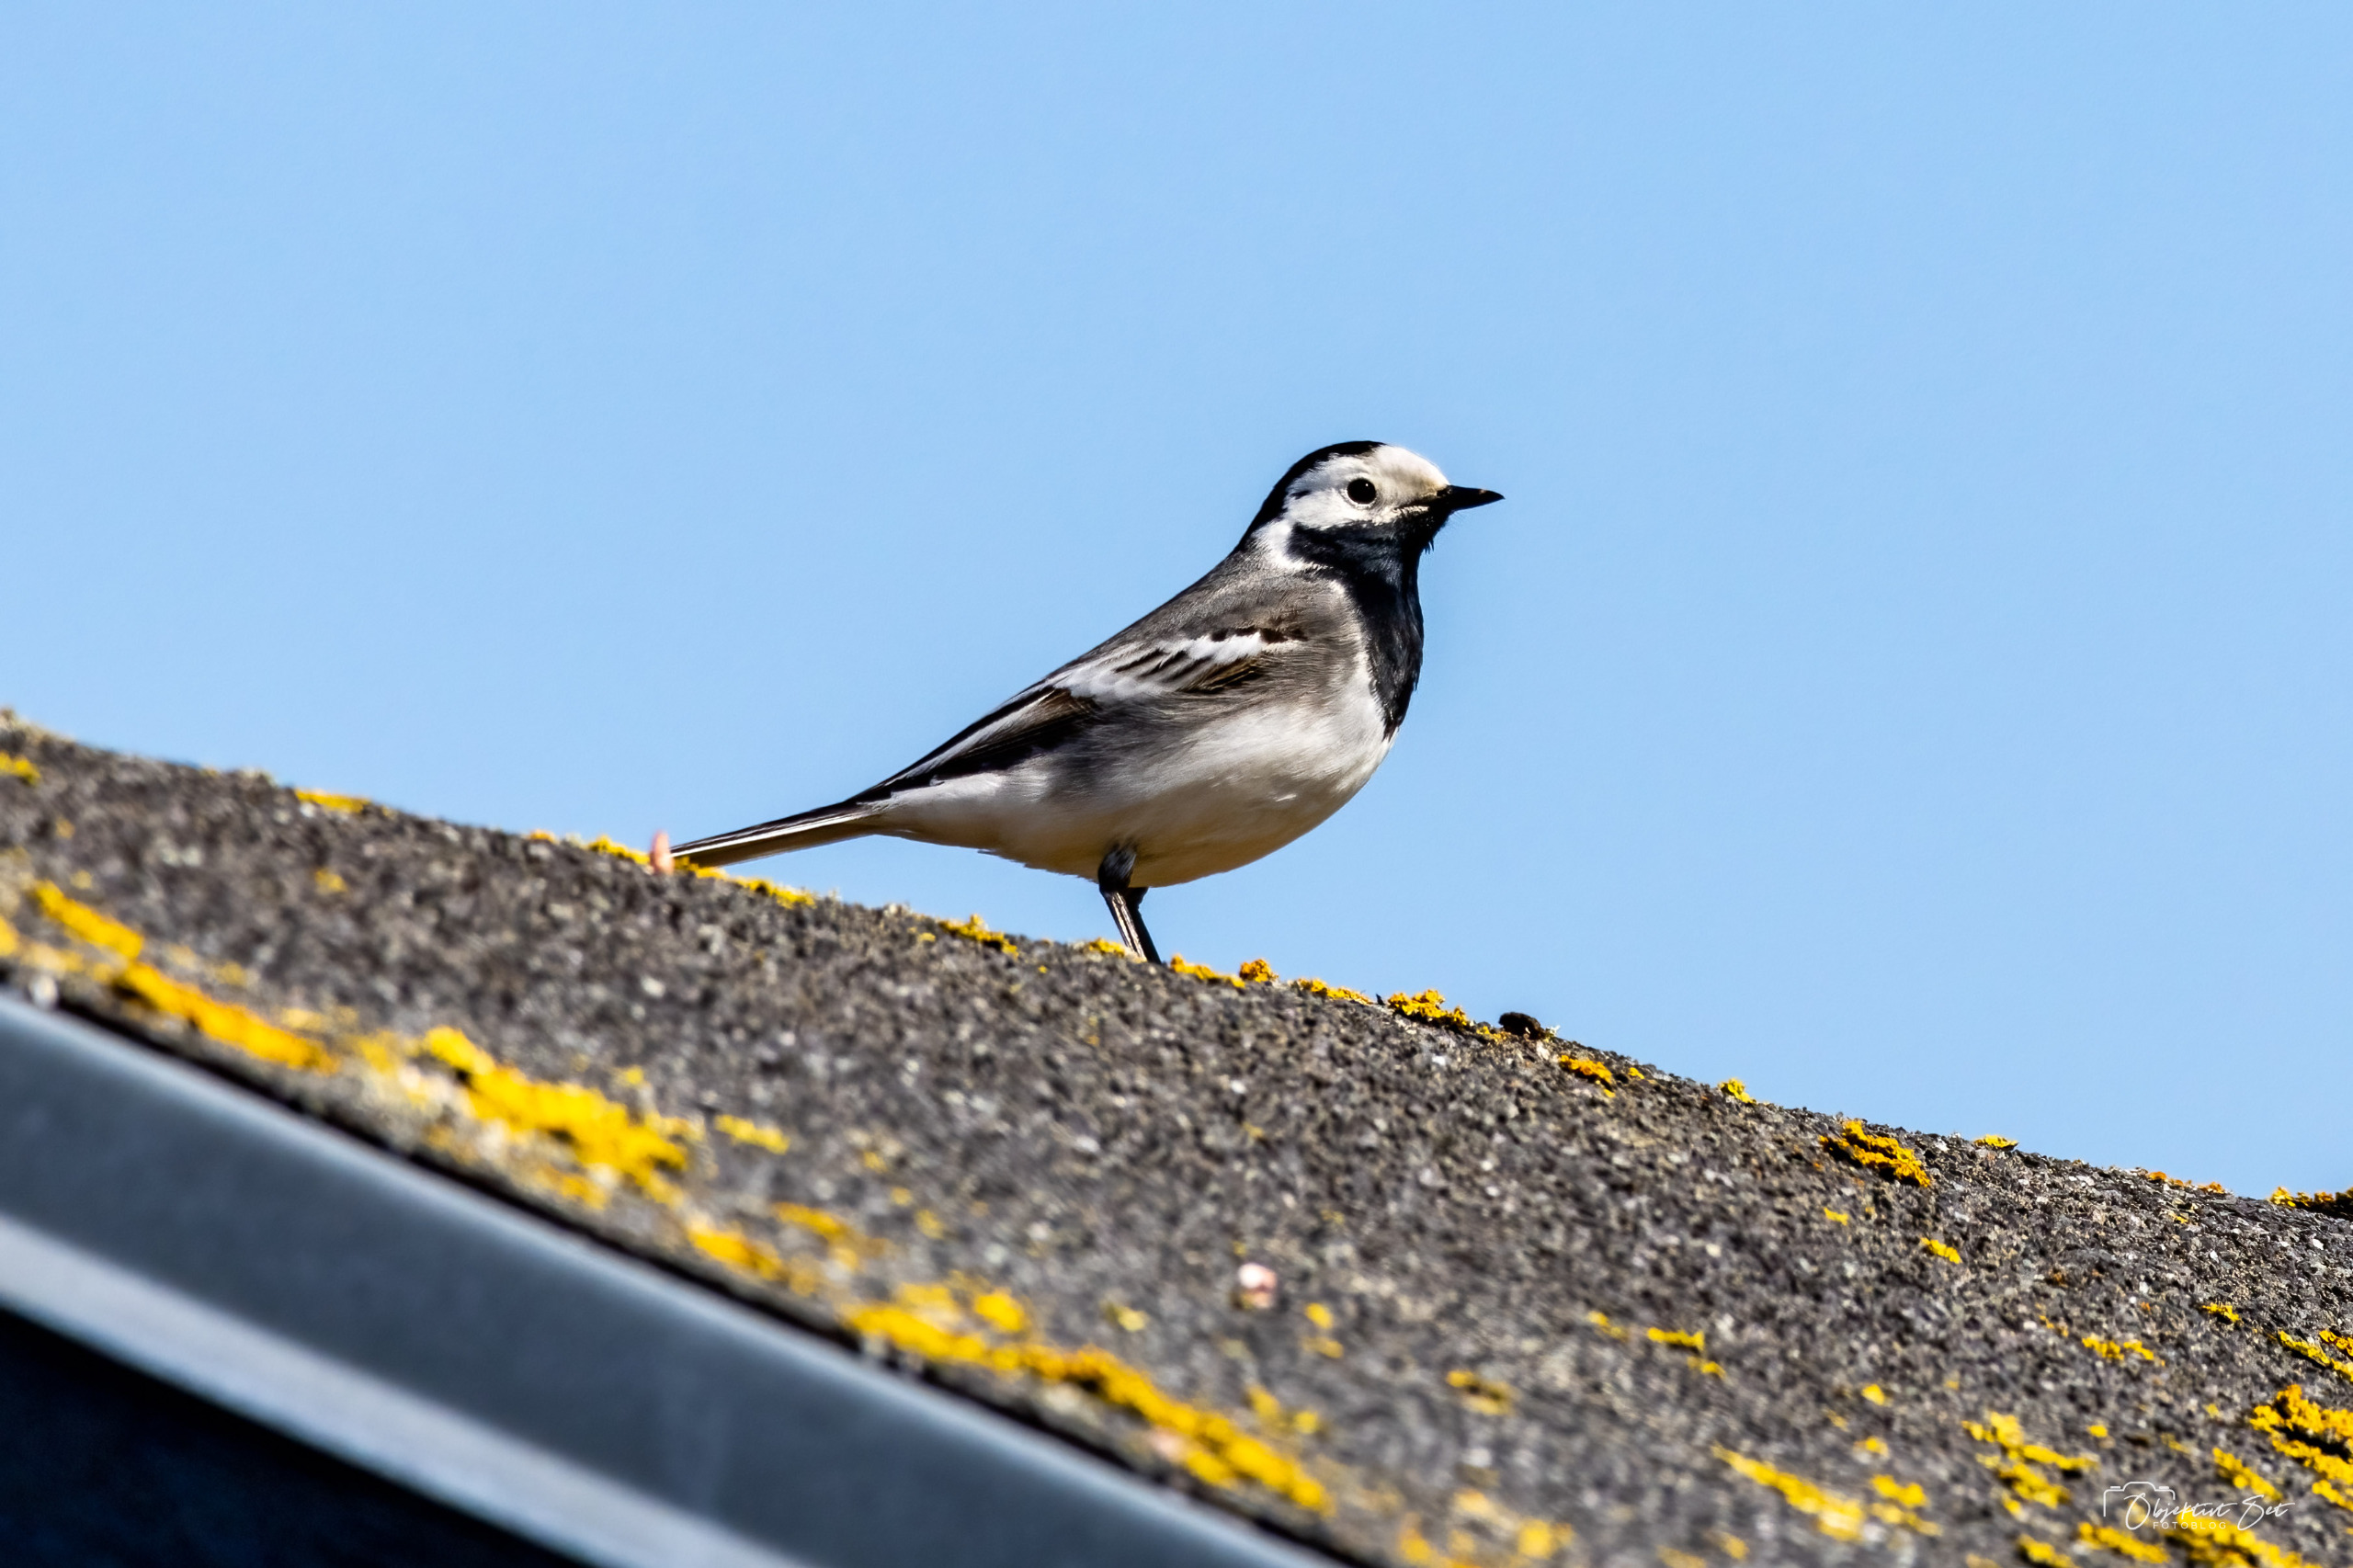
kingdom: Animalia
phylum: Chordata
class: Aves
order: Passeriformes
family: Motacillidae
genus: Motacilla
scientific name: Motacilla alba
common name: Hvid vipstjert
